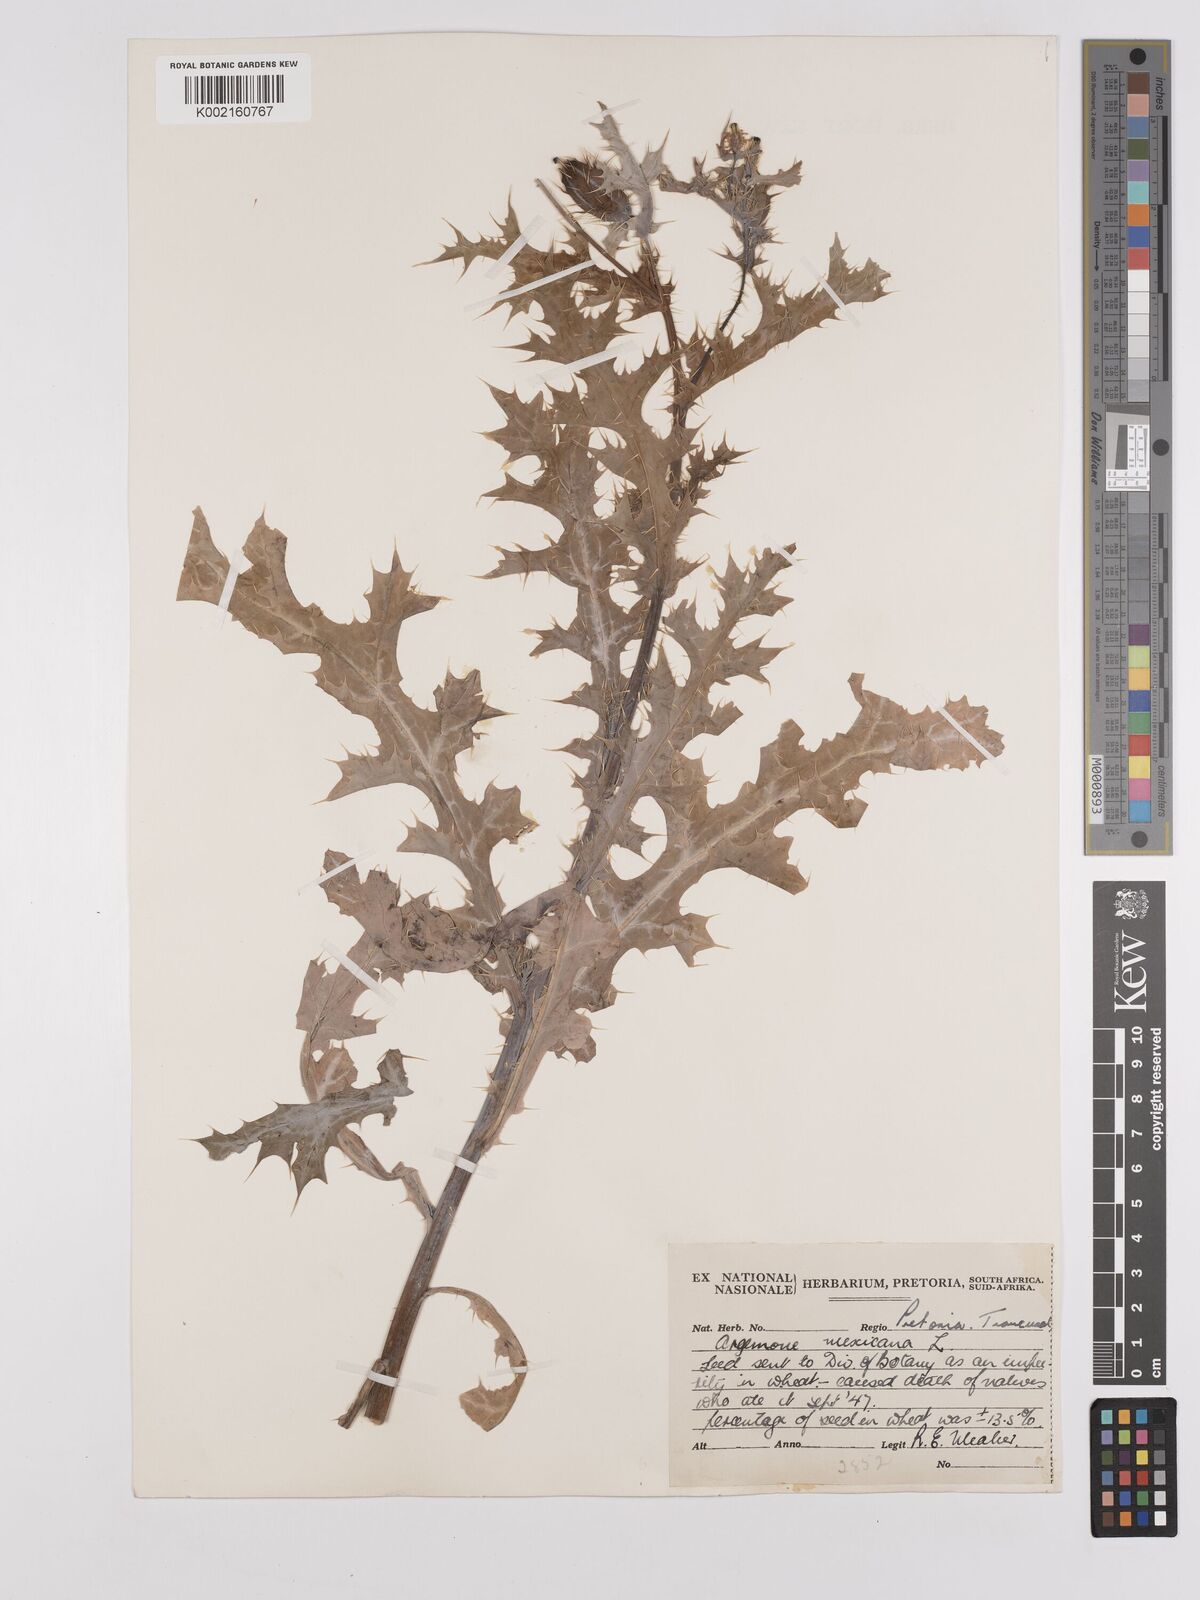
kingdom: Plantae
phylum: Tracheophyta
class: Magnoliopsida
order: Ranunculales
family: Papaveraceae
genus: Argemone
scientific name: Argemone mexicana
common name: Mexican poppy
